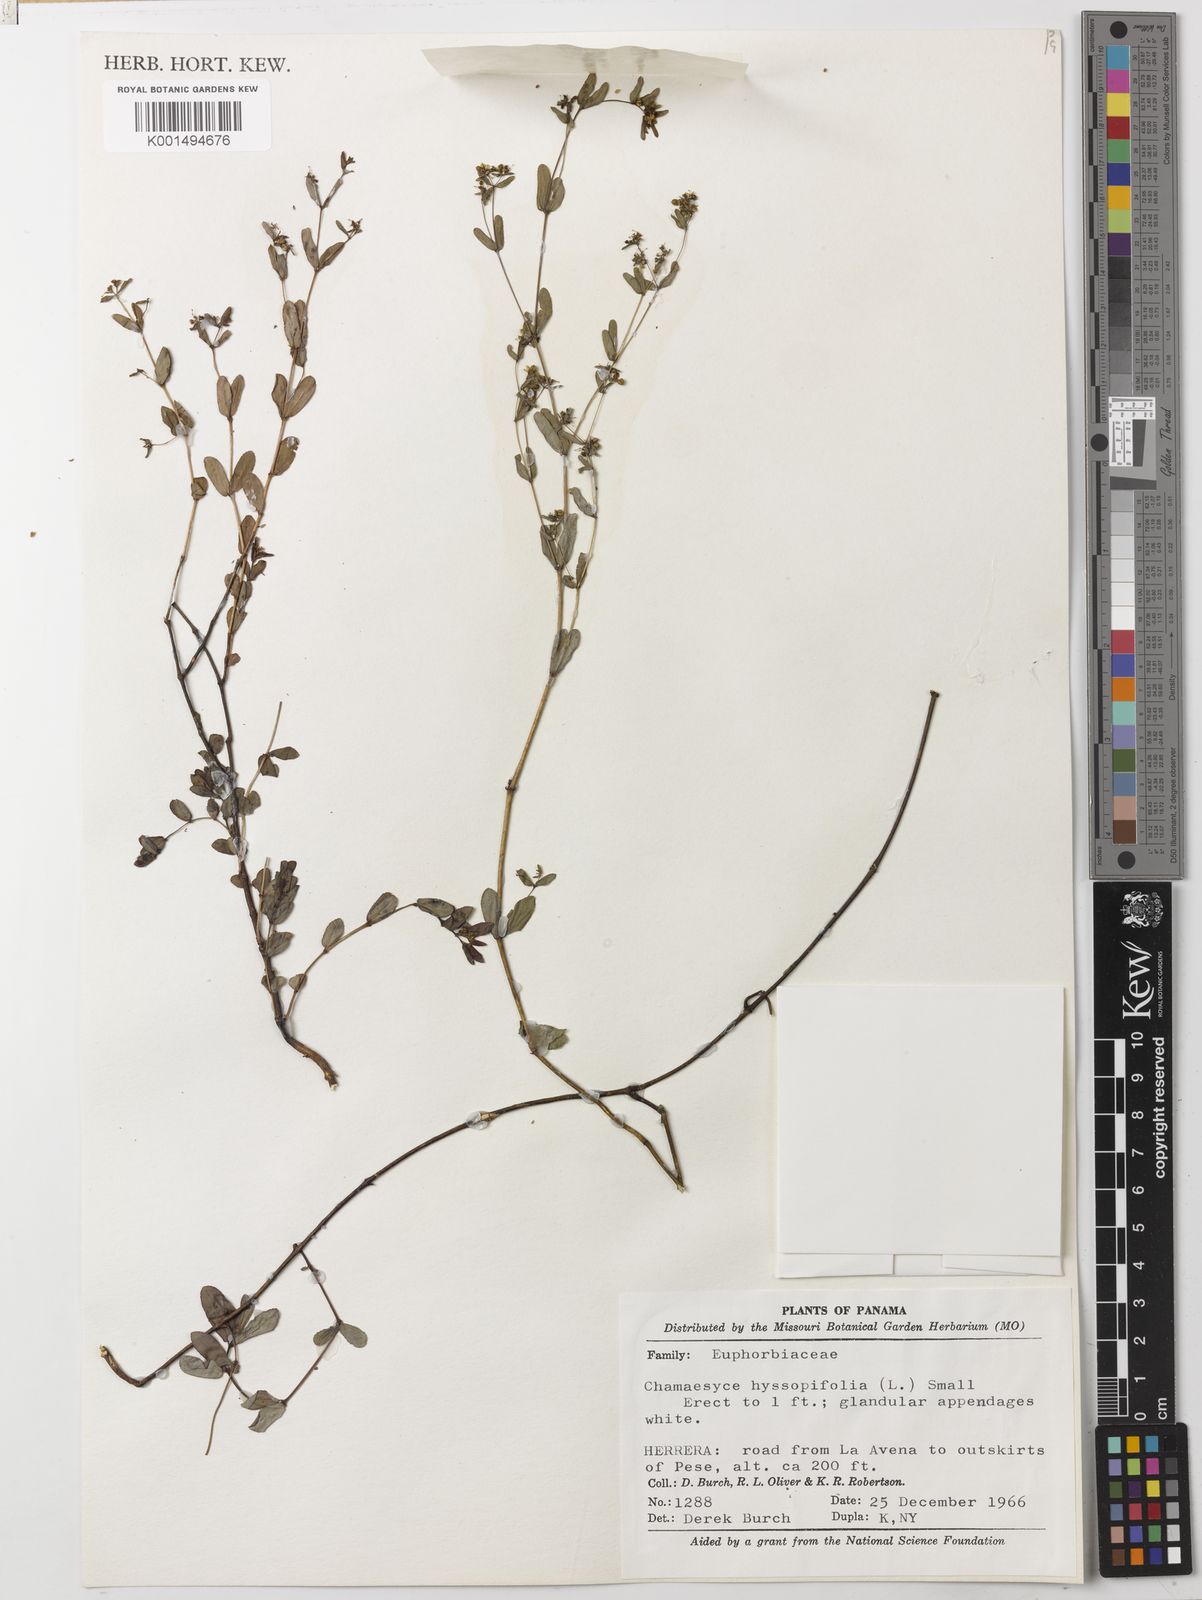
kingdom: Plantae
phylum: Tracheophyta
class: Magnoliopsida
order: Malpighiales
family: Euphorbiaceae
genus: Euphorbia
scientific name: Euphorbia hyssopifolia
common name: Hyssopleaf sandmat
